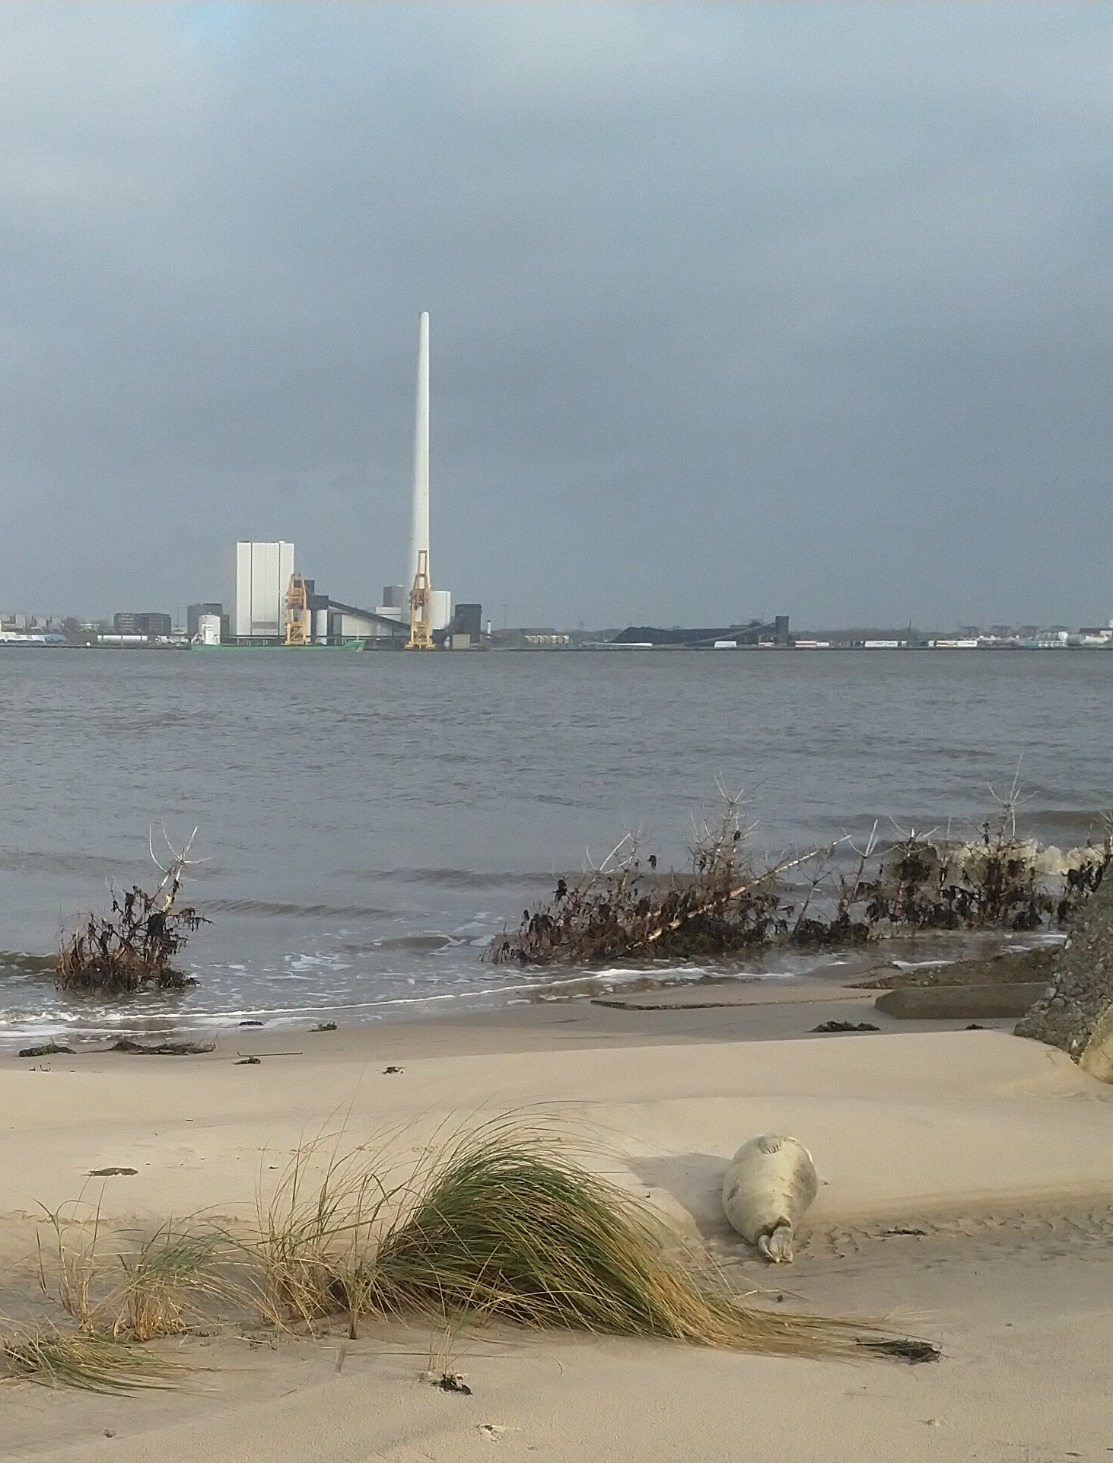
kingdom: Animalia
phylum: Chordata
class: Mammalia
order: Carnivora
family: Phocidae
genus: Phoca
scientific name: Phoca vitulina
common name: Spættet sæl
